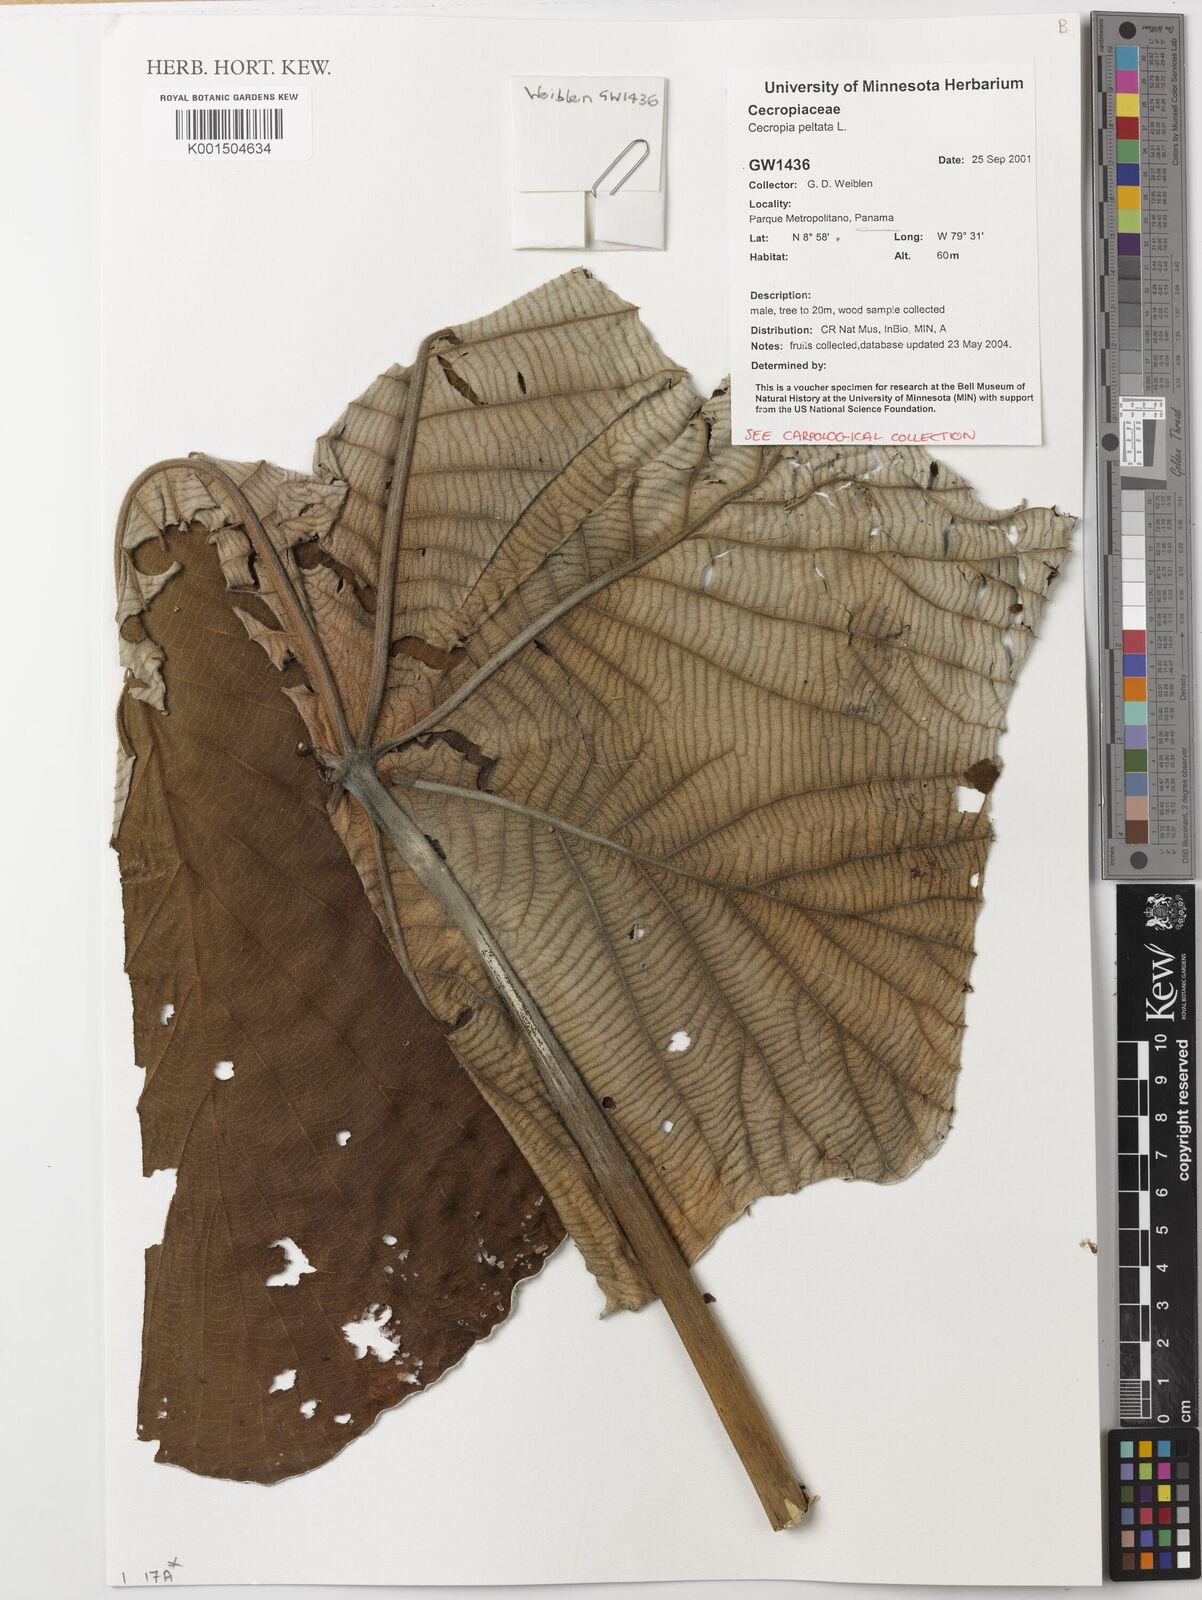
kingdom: Plantae
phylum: Tracheophyta
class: Magnoliopsida
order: Rosales
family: Urticaceae
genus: Cecropia
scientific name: Cecropia peltata
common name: Trumpet-tree
